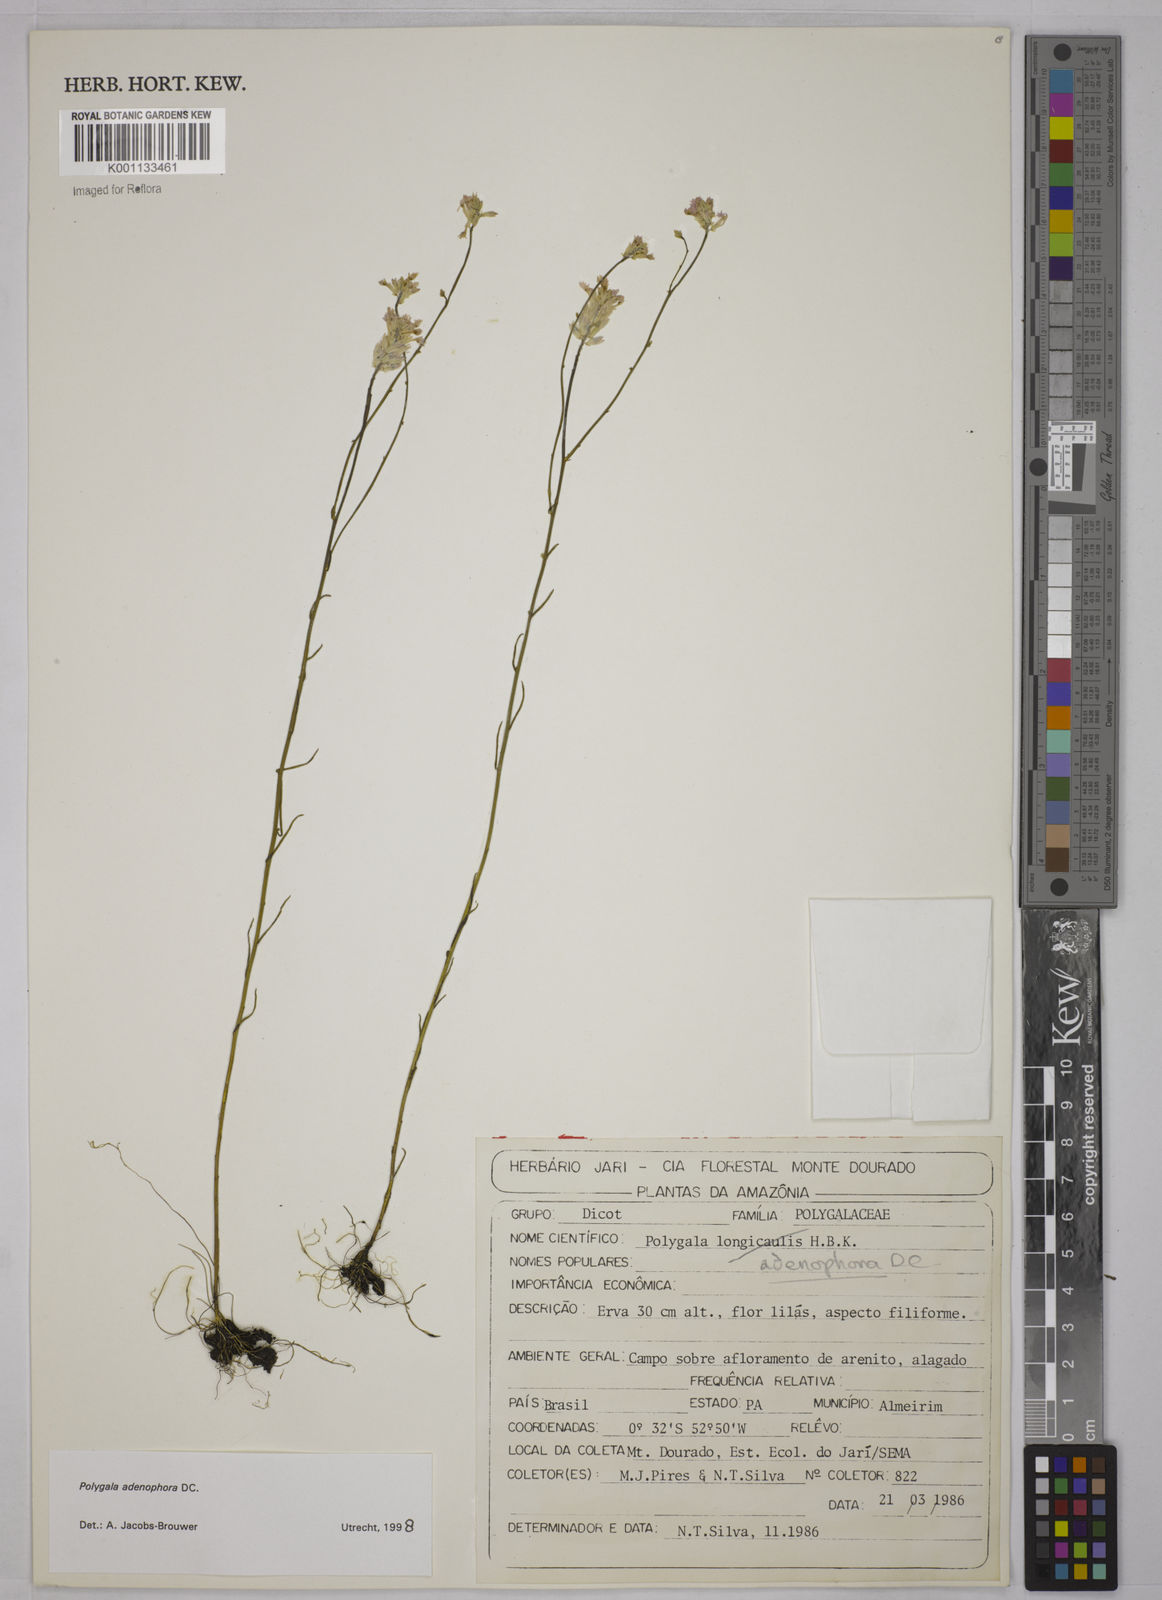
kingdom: Plantae
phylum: Tracheophyta
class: Magnoliopsida
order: Fabales
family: Polygalaceae
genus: Polygala
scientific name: Polygala adenophora
